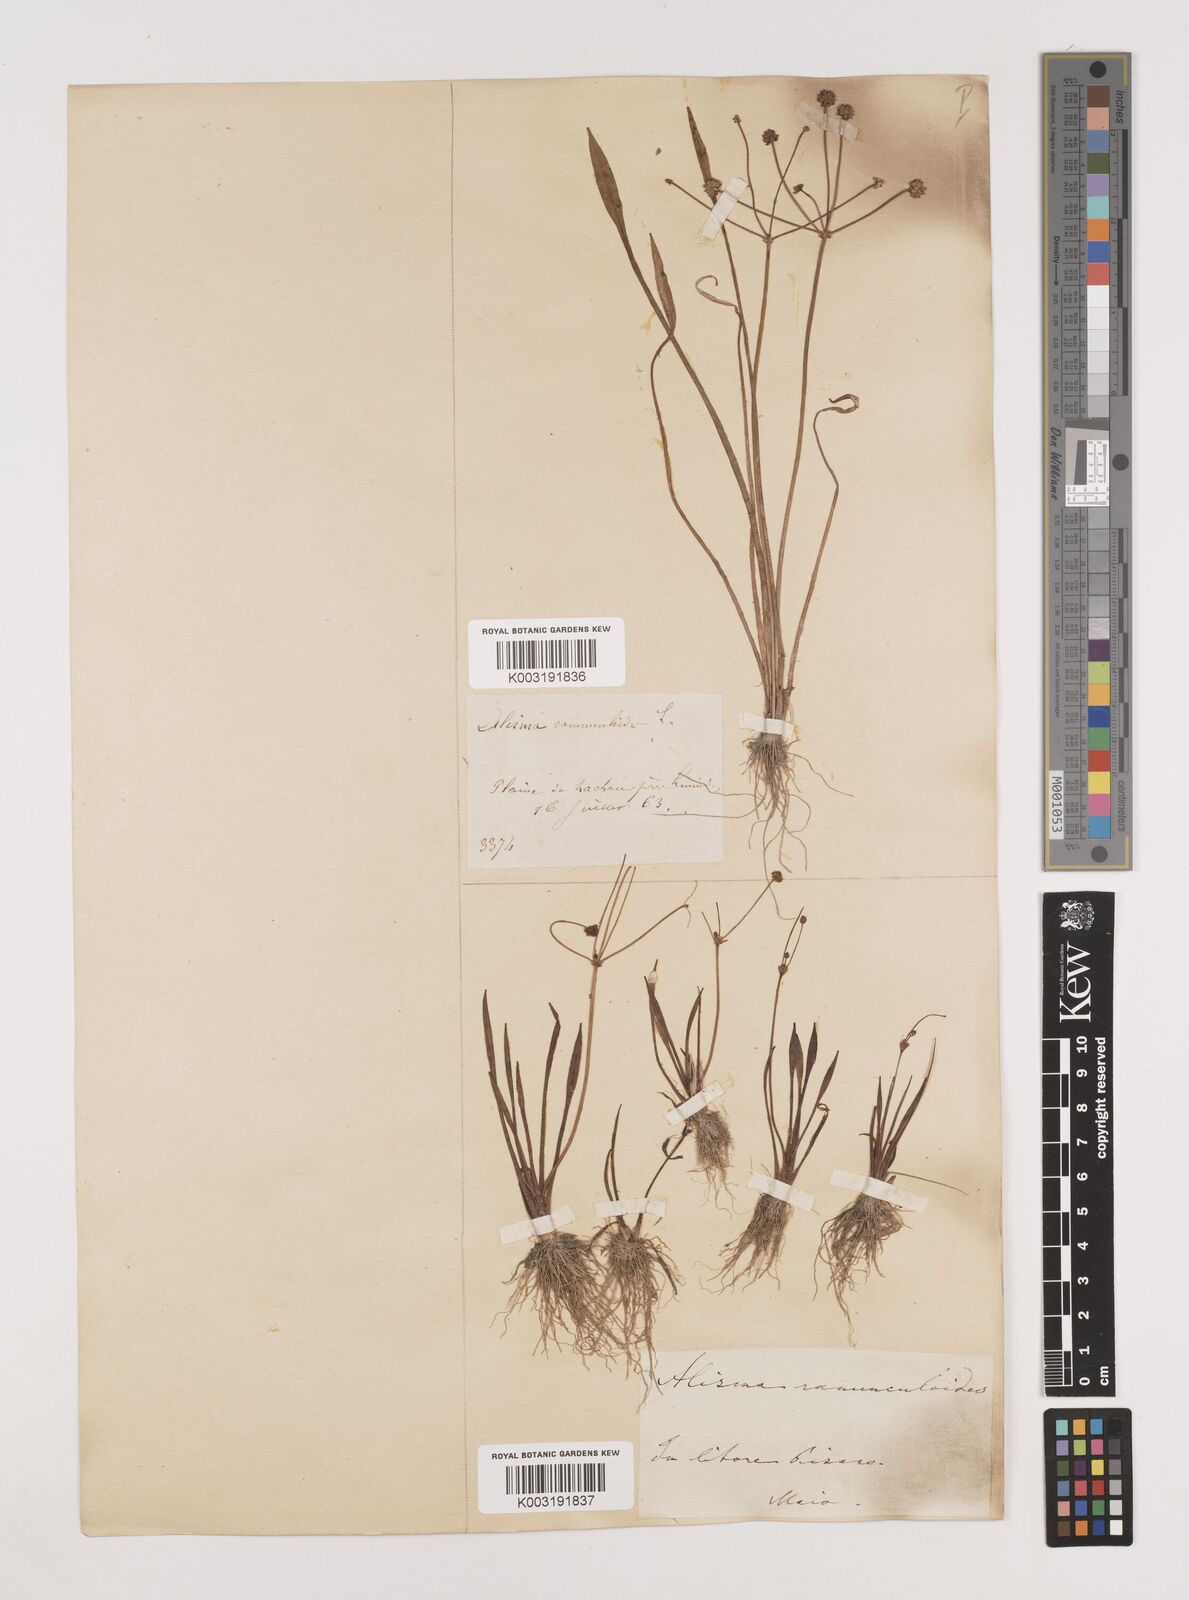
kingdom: Plantae
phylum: Tracheophyta
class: Liliopsida
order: Alismatales
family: Alismataceae
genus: Baldellia
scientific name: Baldellia ranunculoides
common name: Lesser water-plantain
